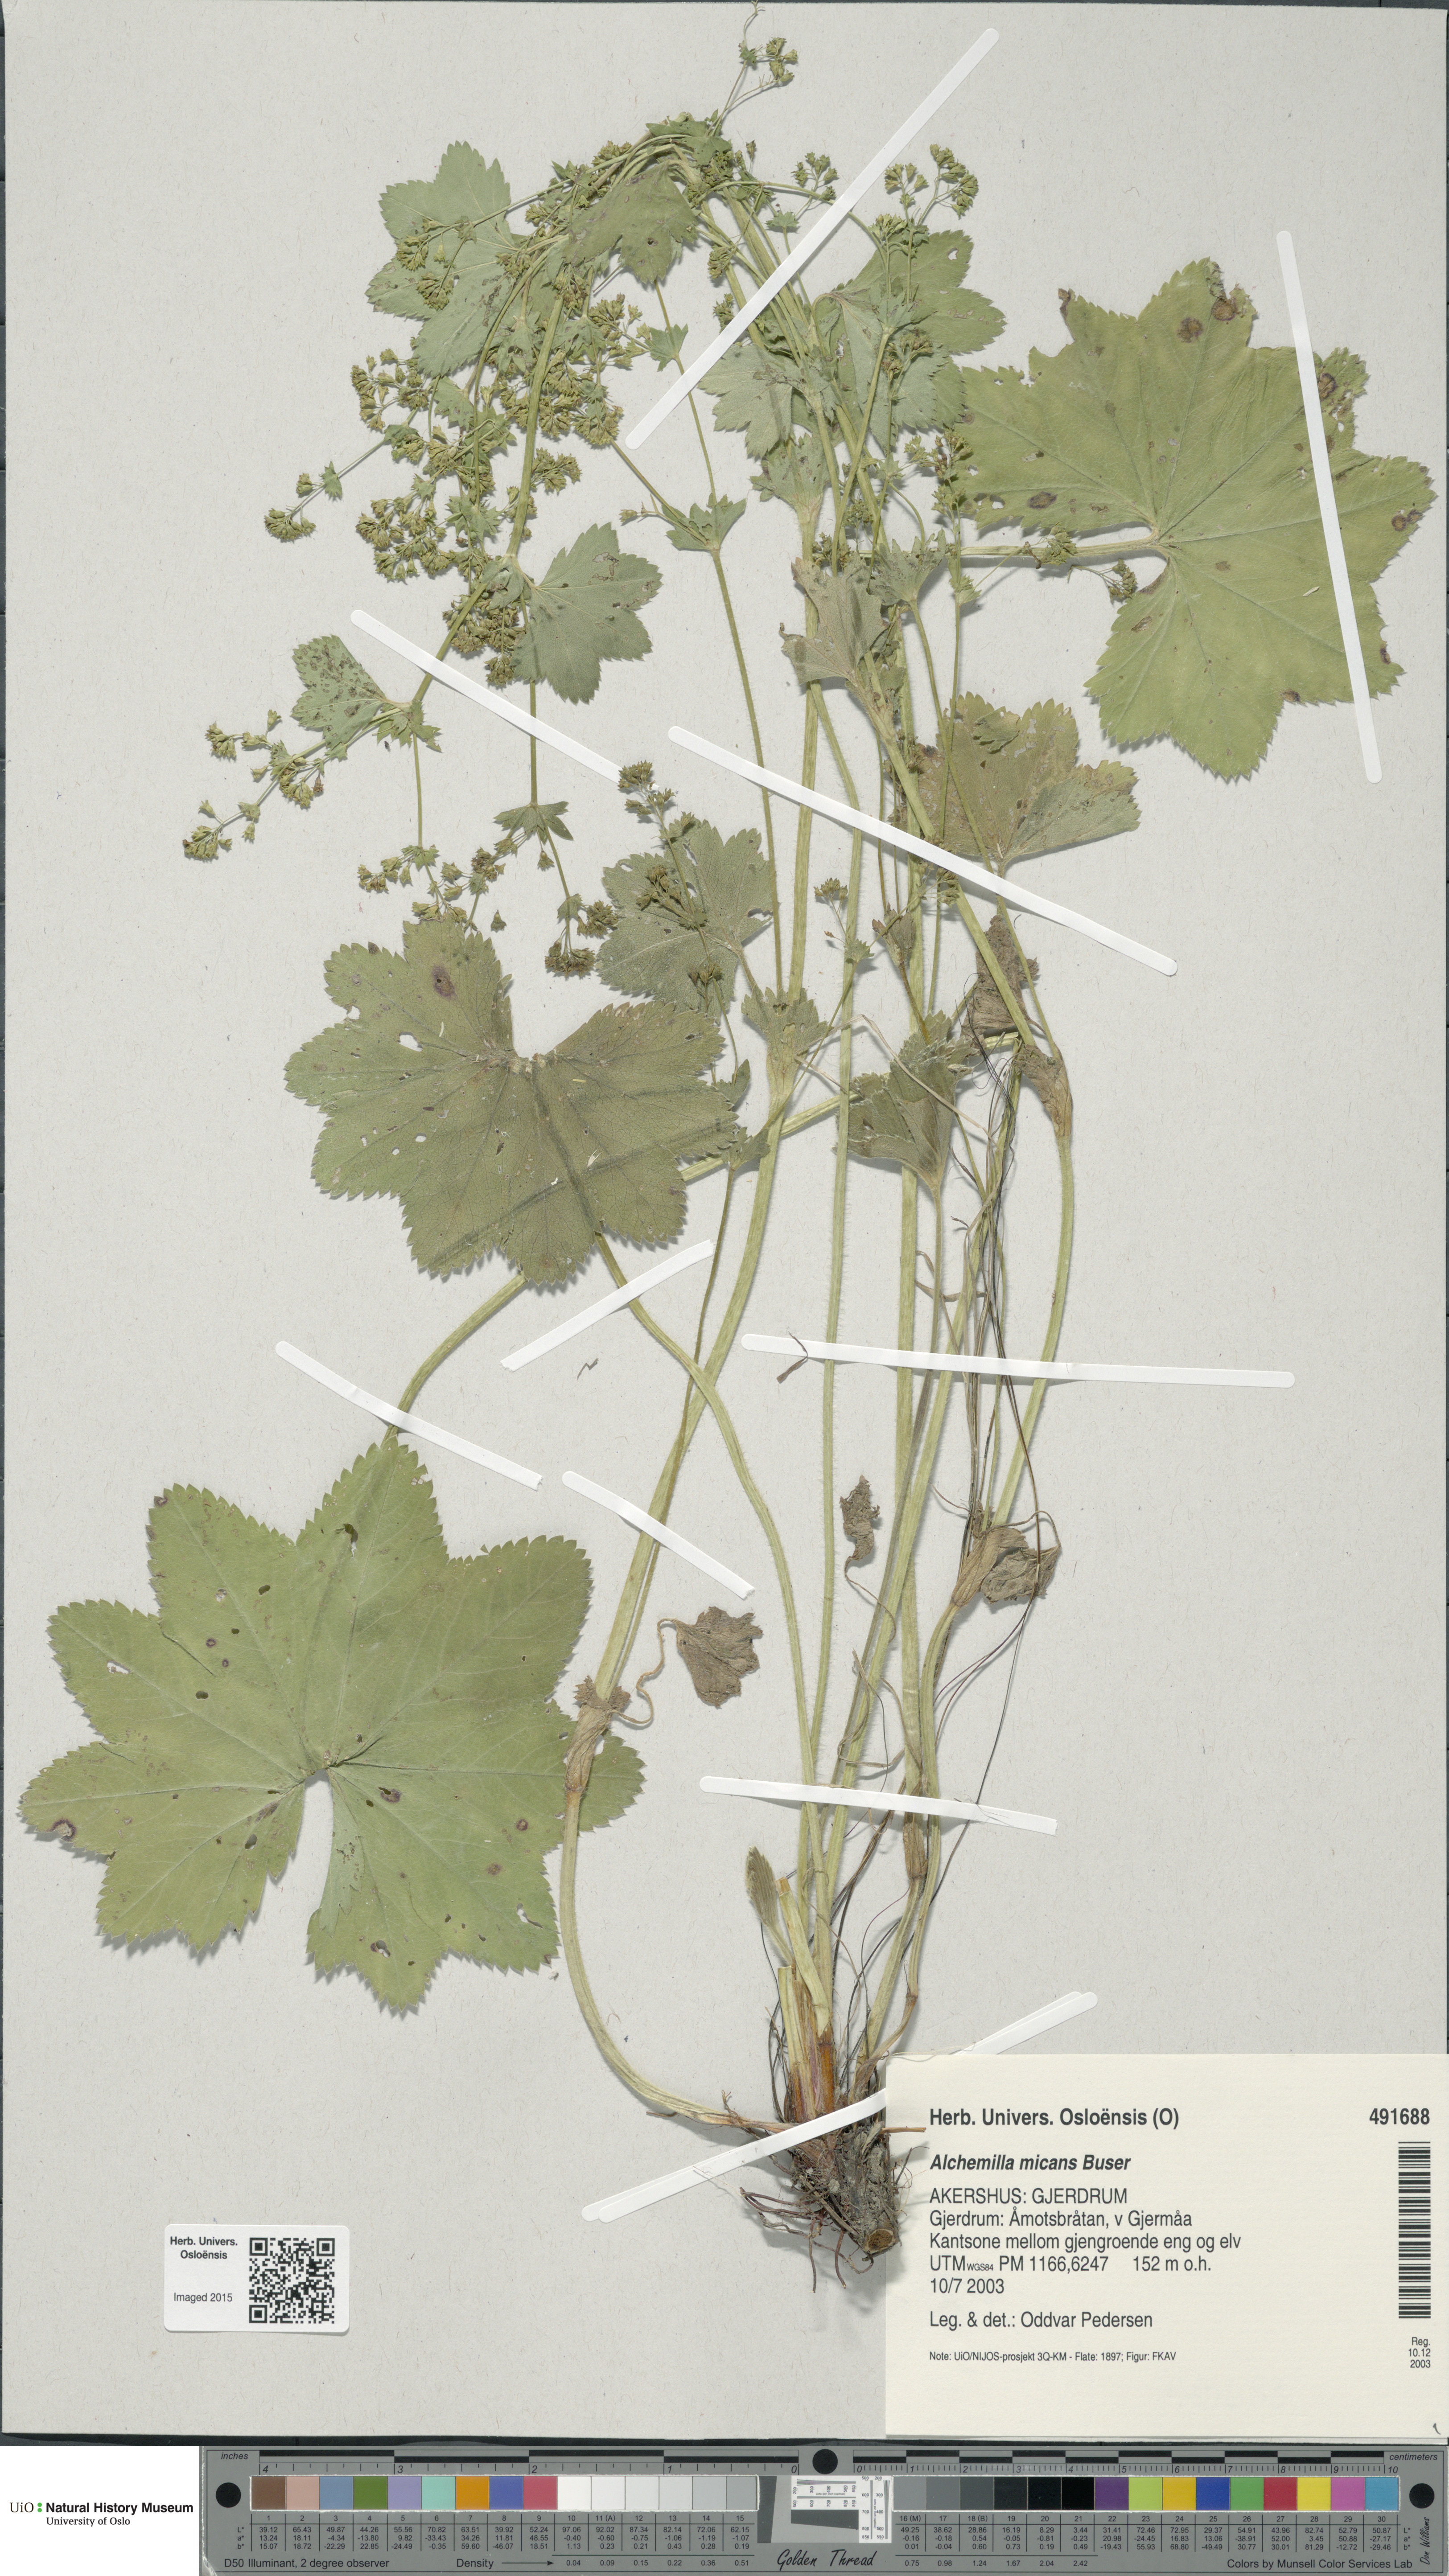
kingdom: Plantae
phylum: Tracheophyta
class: Magnoliopsida
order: Rosales
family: Rosaceae
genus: Alchemilla
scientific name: Alchemilla micans
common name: Gleaming lady's mantle
